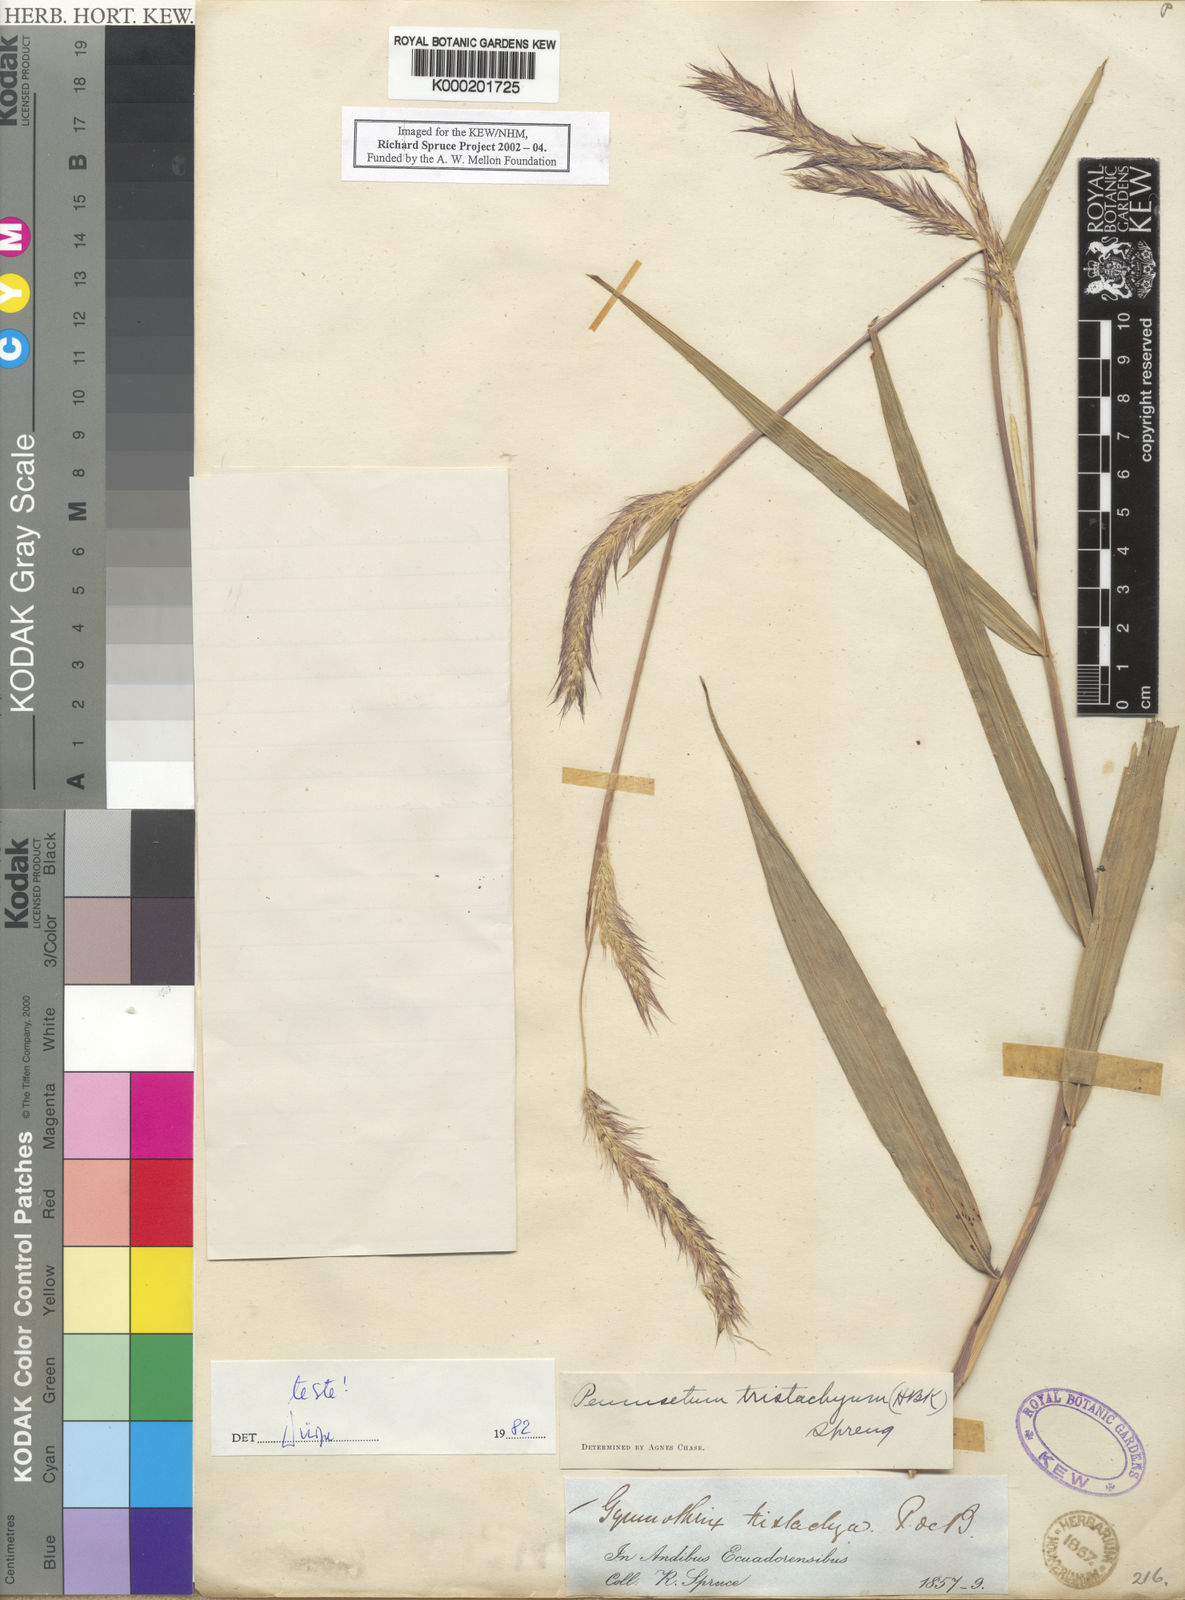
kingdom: Plantae
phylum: Tracheophyta
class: Liliopsida
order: Poales
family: Poaceae
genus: Cenchrus
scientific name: Cenchrus tristachyus
